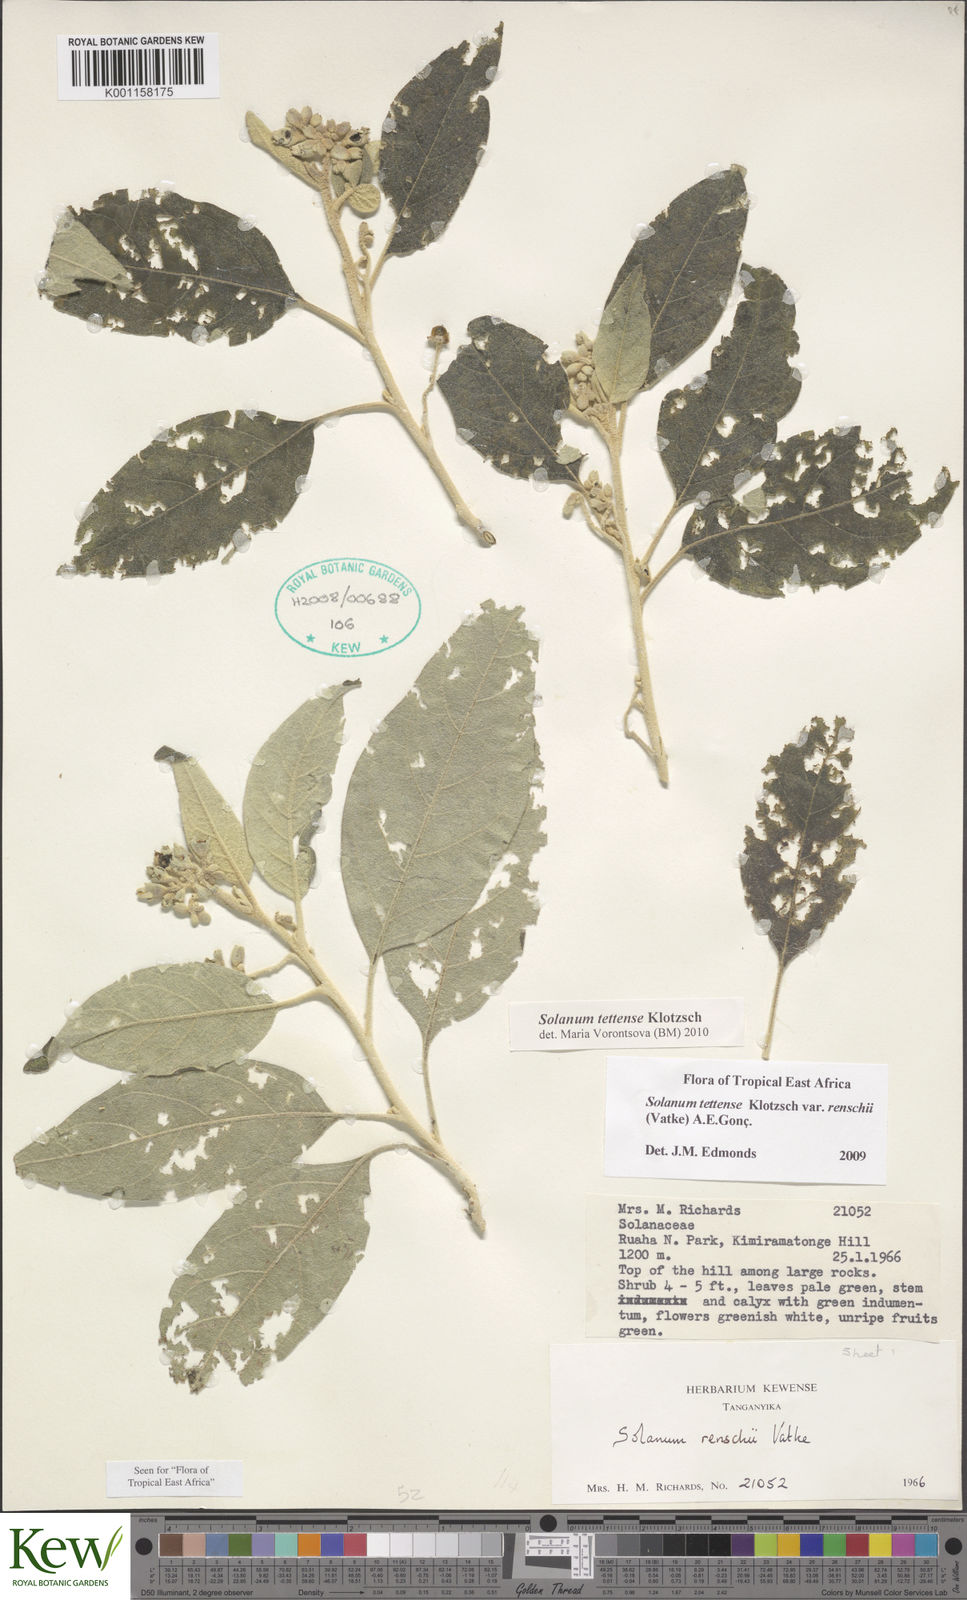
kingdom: Plantae
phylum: Tracheophyta
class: Magnoliopsida
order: Solanales
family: Solanaceae
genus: Solanum
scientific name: Solanum tettense
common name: Mozambique bitter apple
